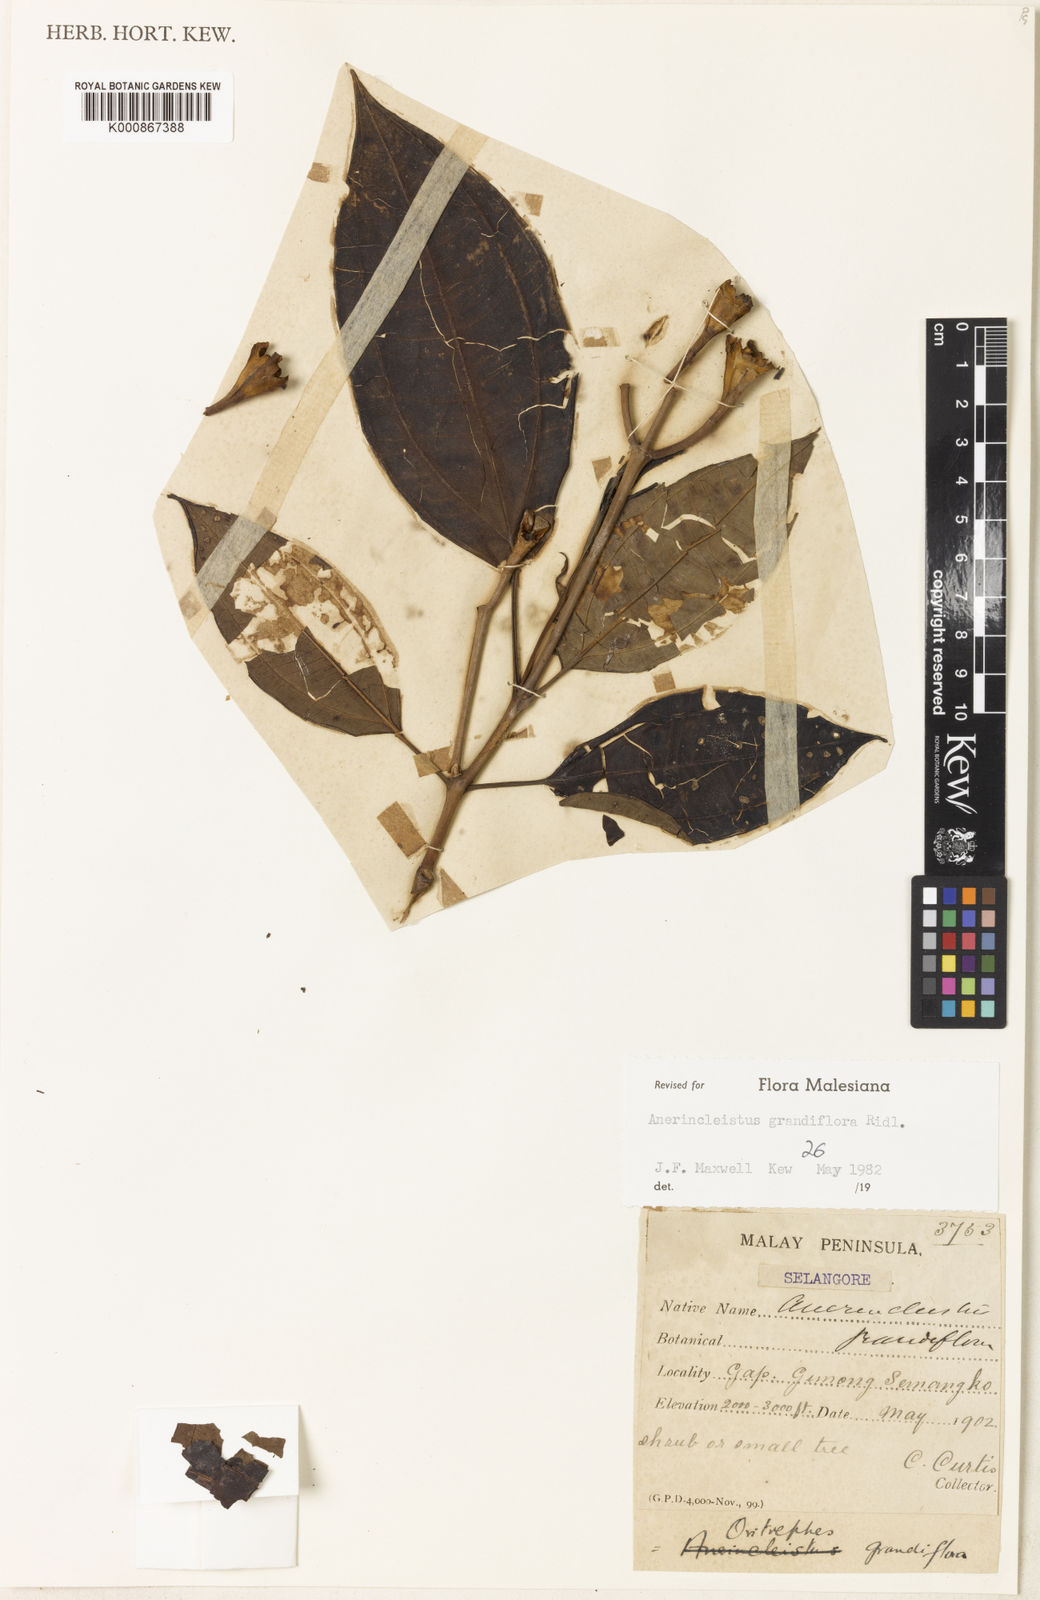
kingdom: Plantae
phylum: Tracheophyta
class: Magnoliopsida
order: Myrtales
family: Melastomataceae
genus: Anerincleistus
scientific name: Anerincleistus grandiflorus
